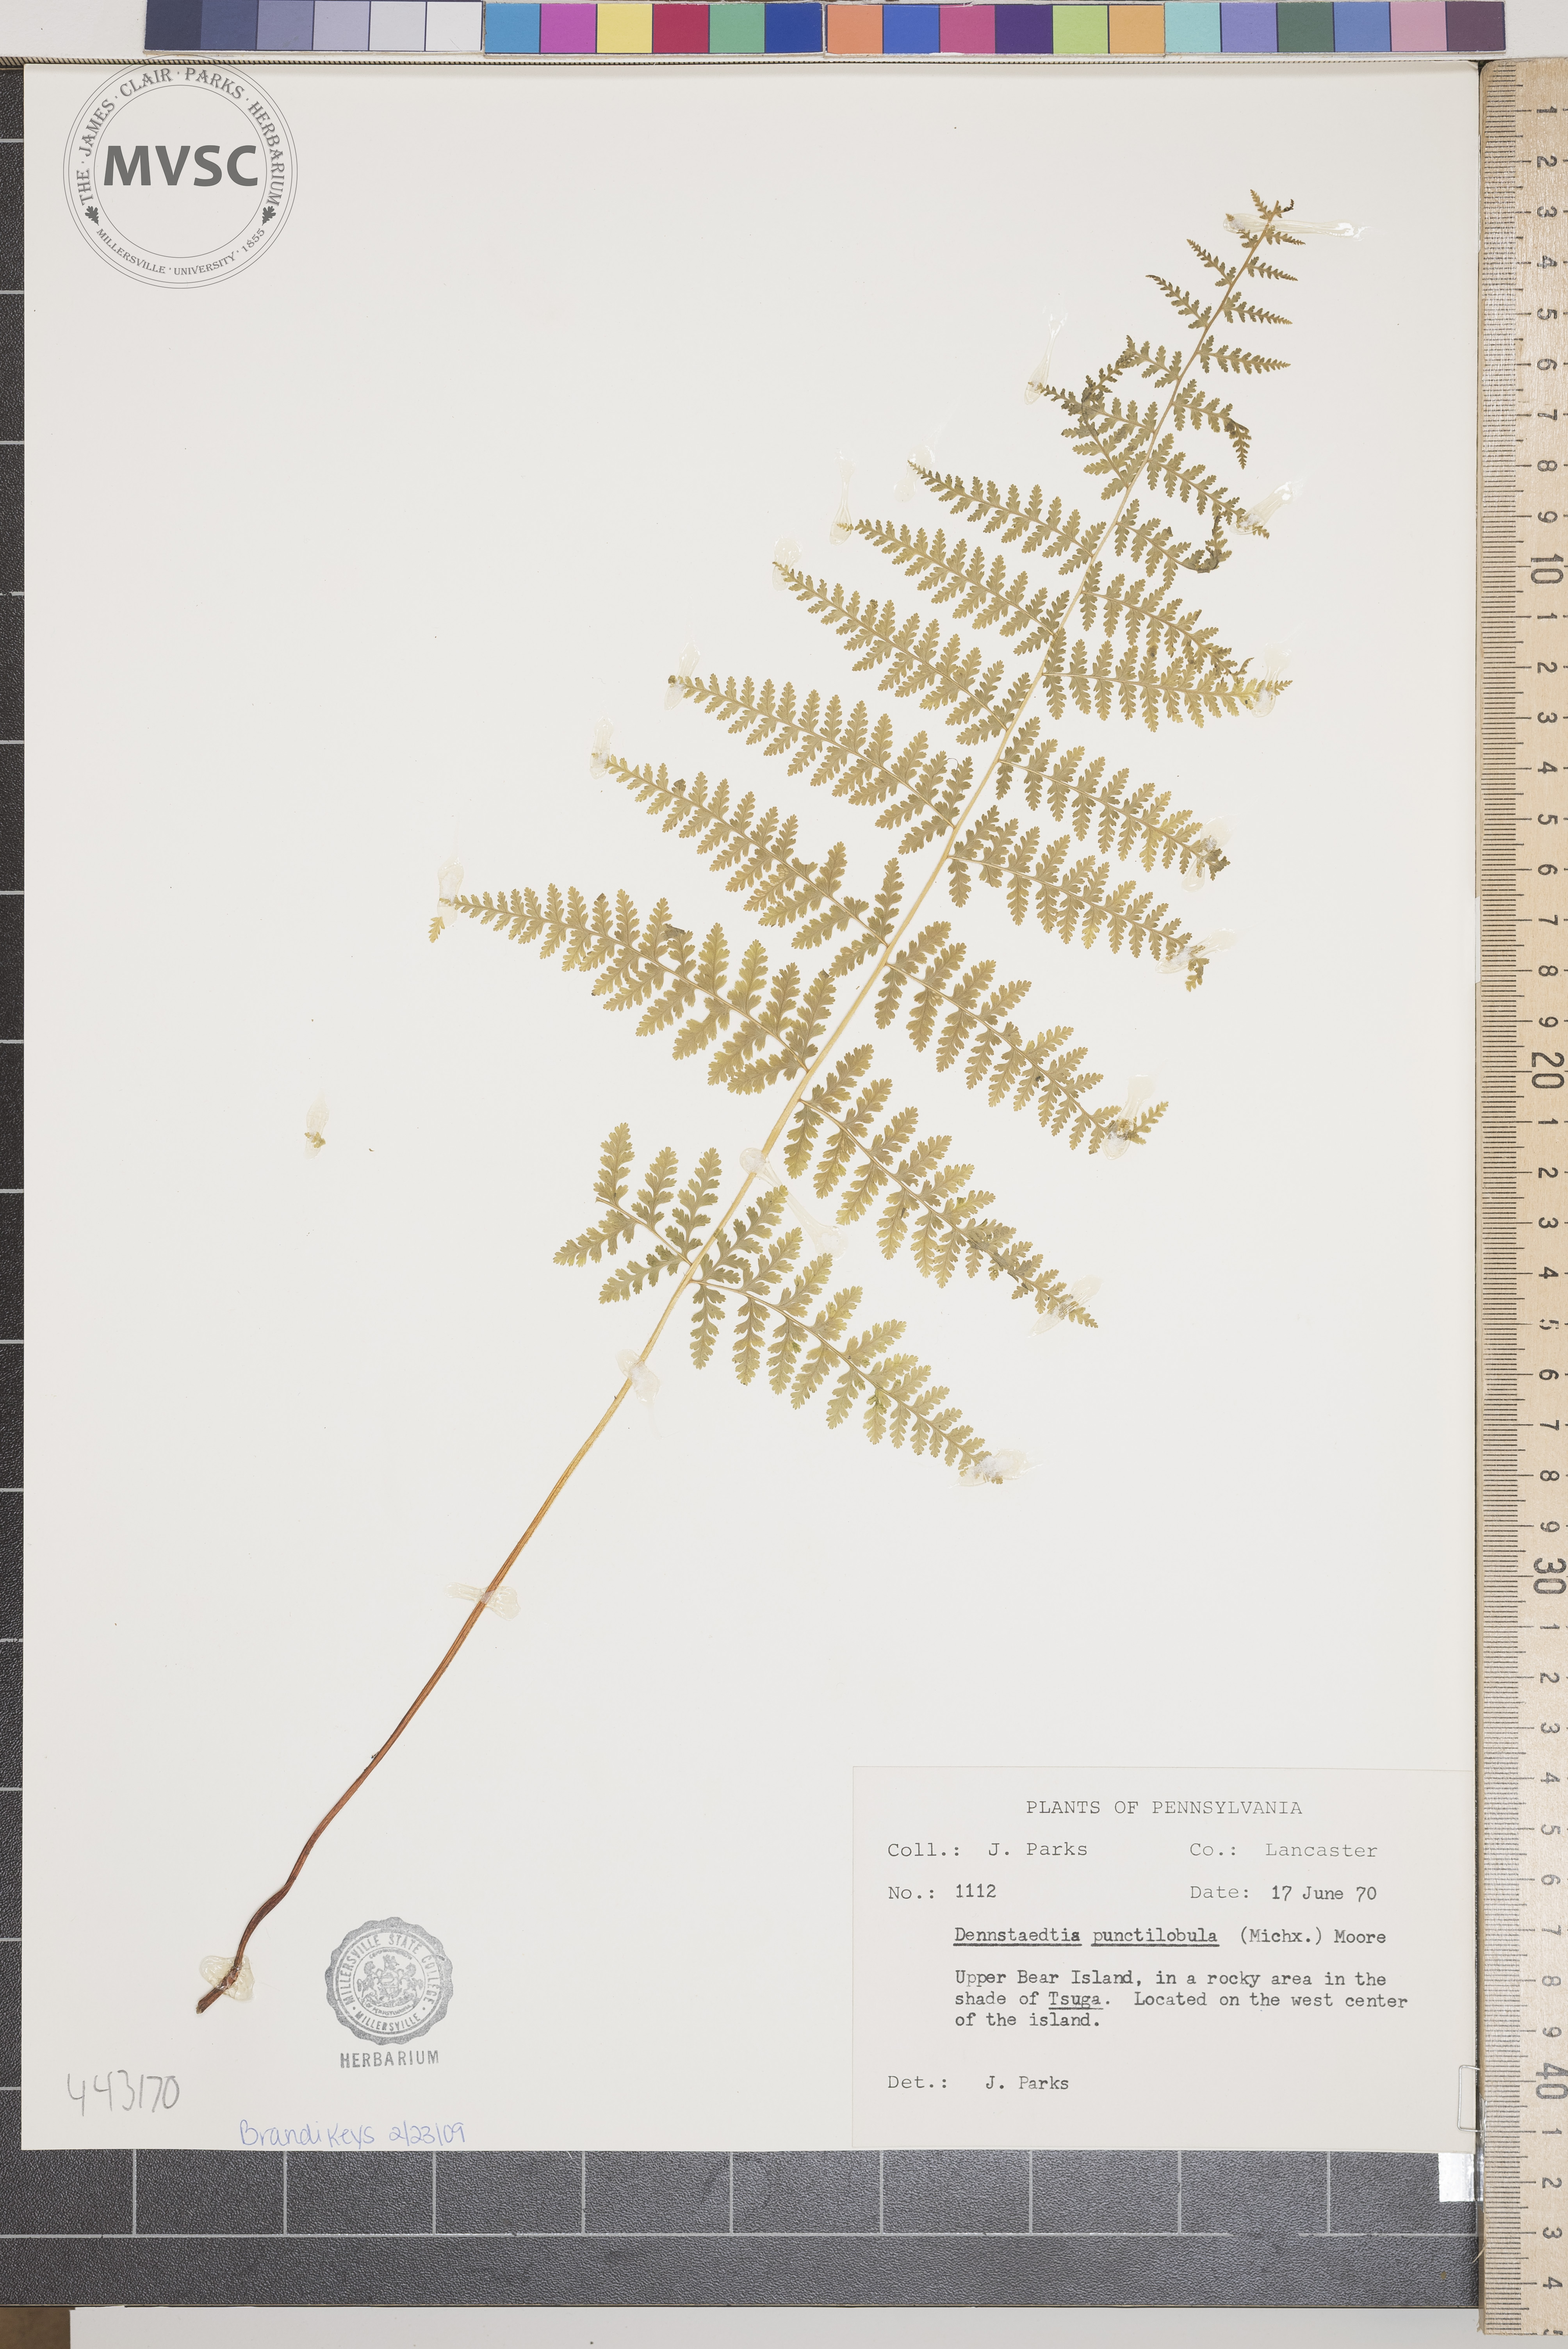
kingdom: Plantae
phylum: Tracheophyta
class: Polypodiopsida
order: Polypodiales
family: Dennstaedtiaceae
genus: Sitobolium
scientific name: Sitobolium punctilobum
